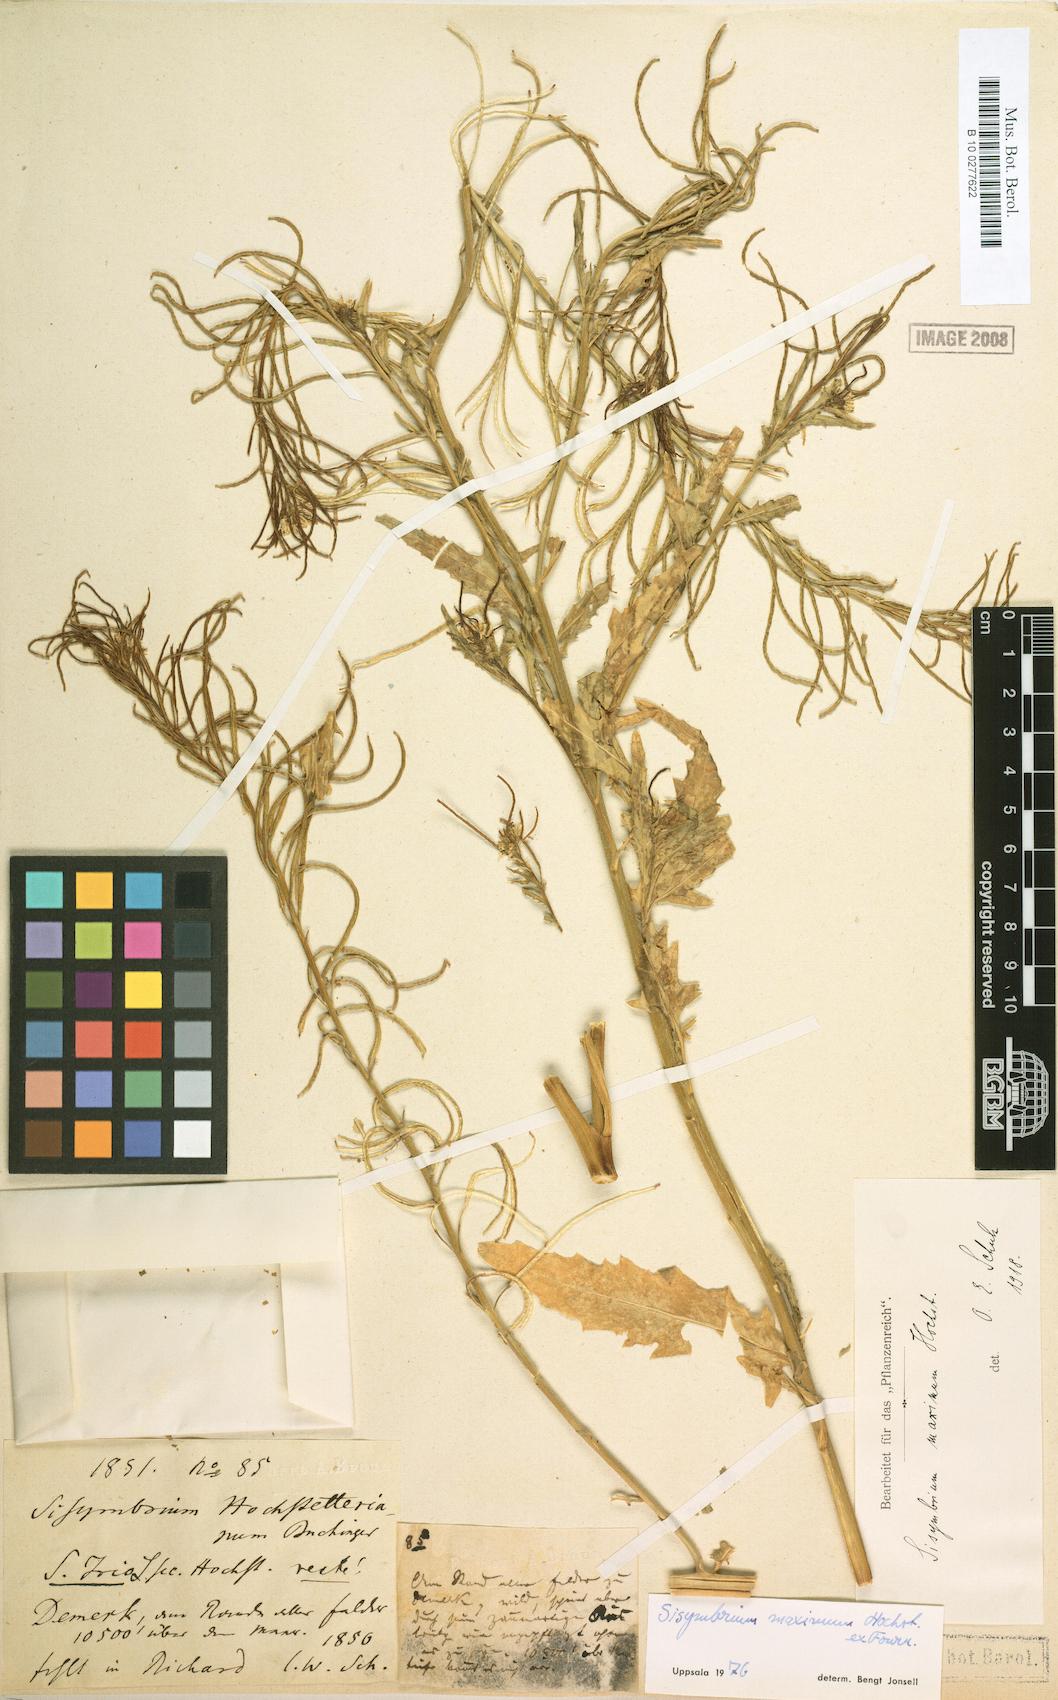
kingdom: Plantae
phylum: Tracheophyta
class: Magnoliopsida
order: Brassicales
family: Brassicaceae
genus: Sisymbrium
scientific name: Sisymbrium irio
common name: London rocket
